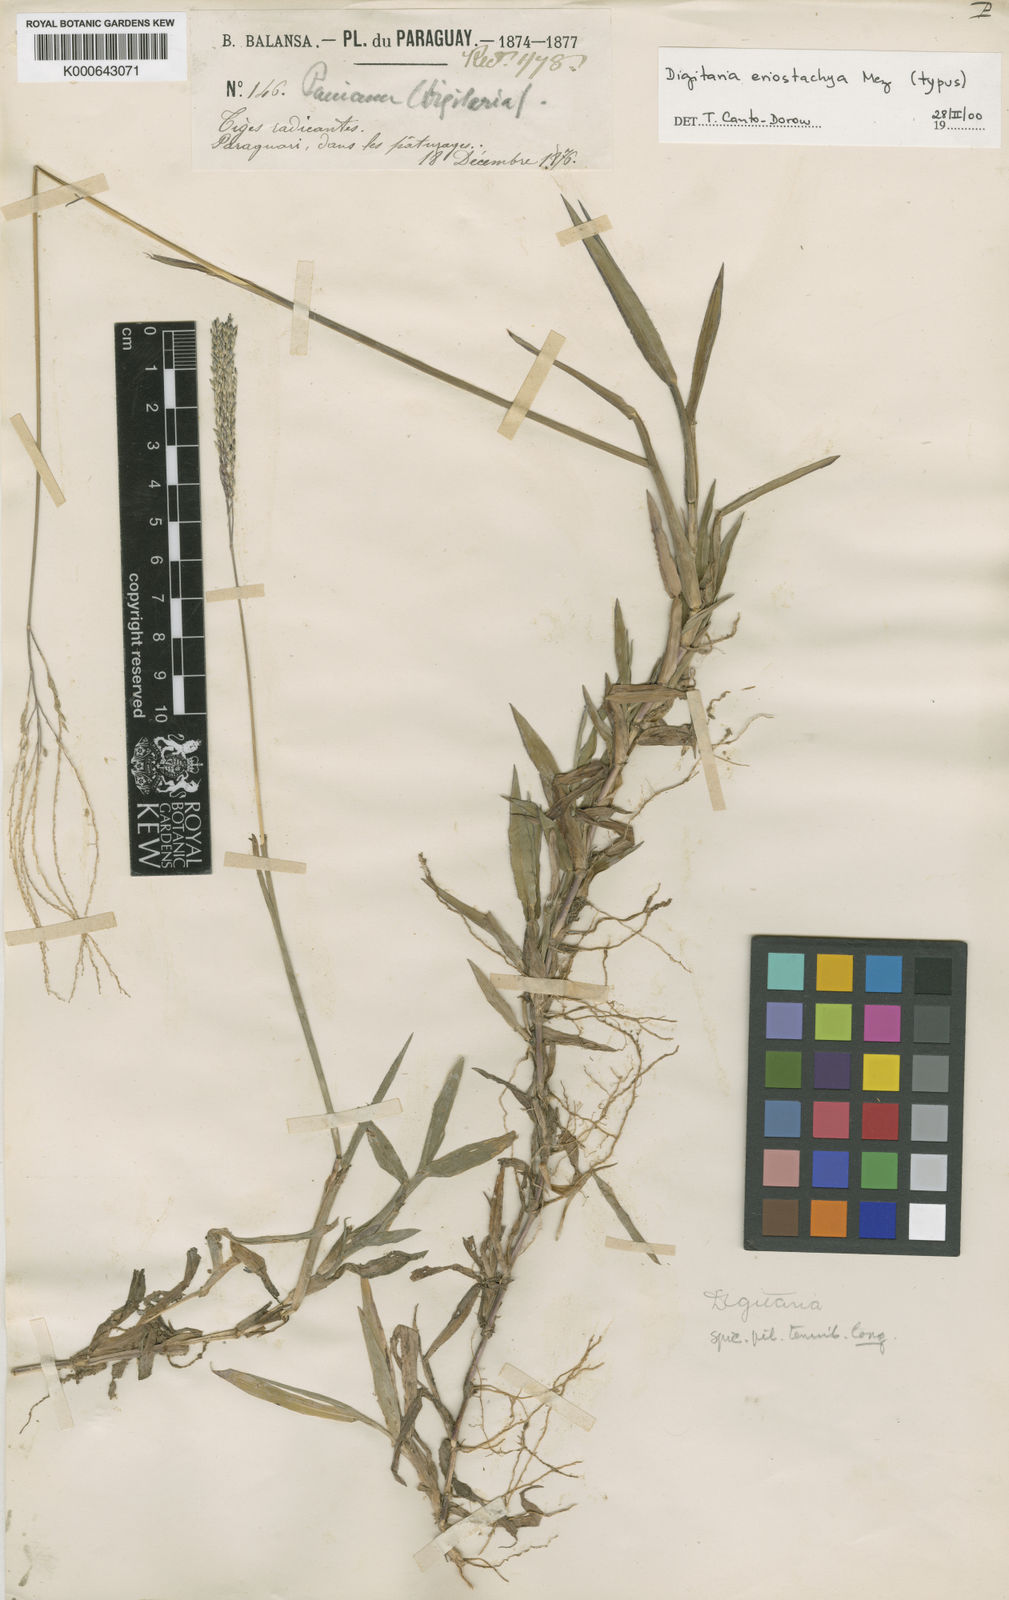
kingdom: Plantae
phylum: Tracheophyta
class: Liliopsida
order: Poales
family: Poaceae
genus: Digitaria
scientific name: Digitaria eriostachya
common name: Crabgrass
